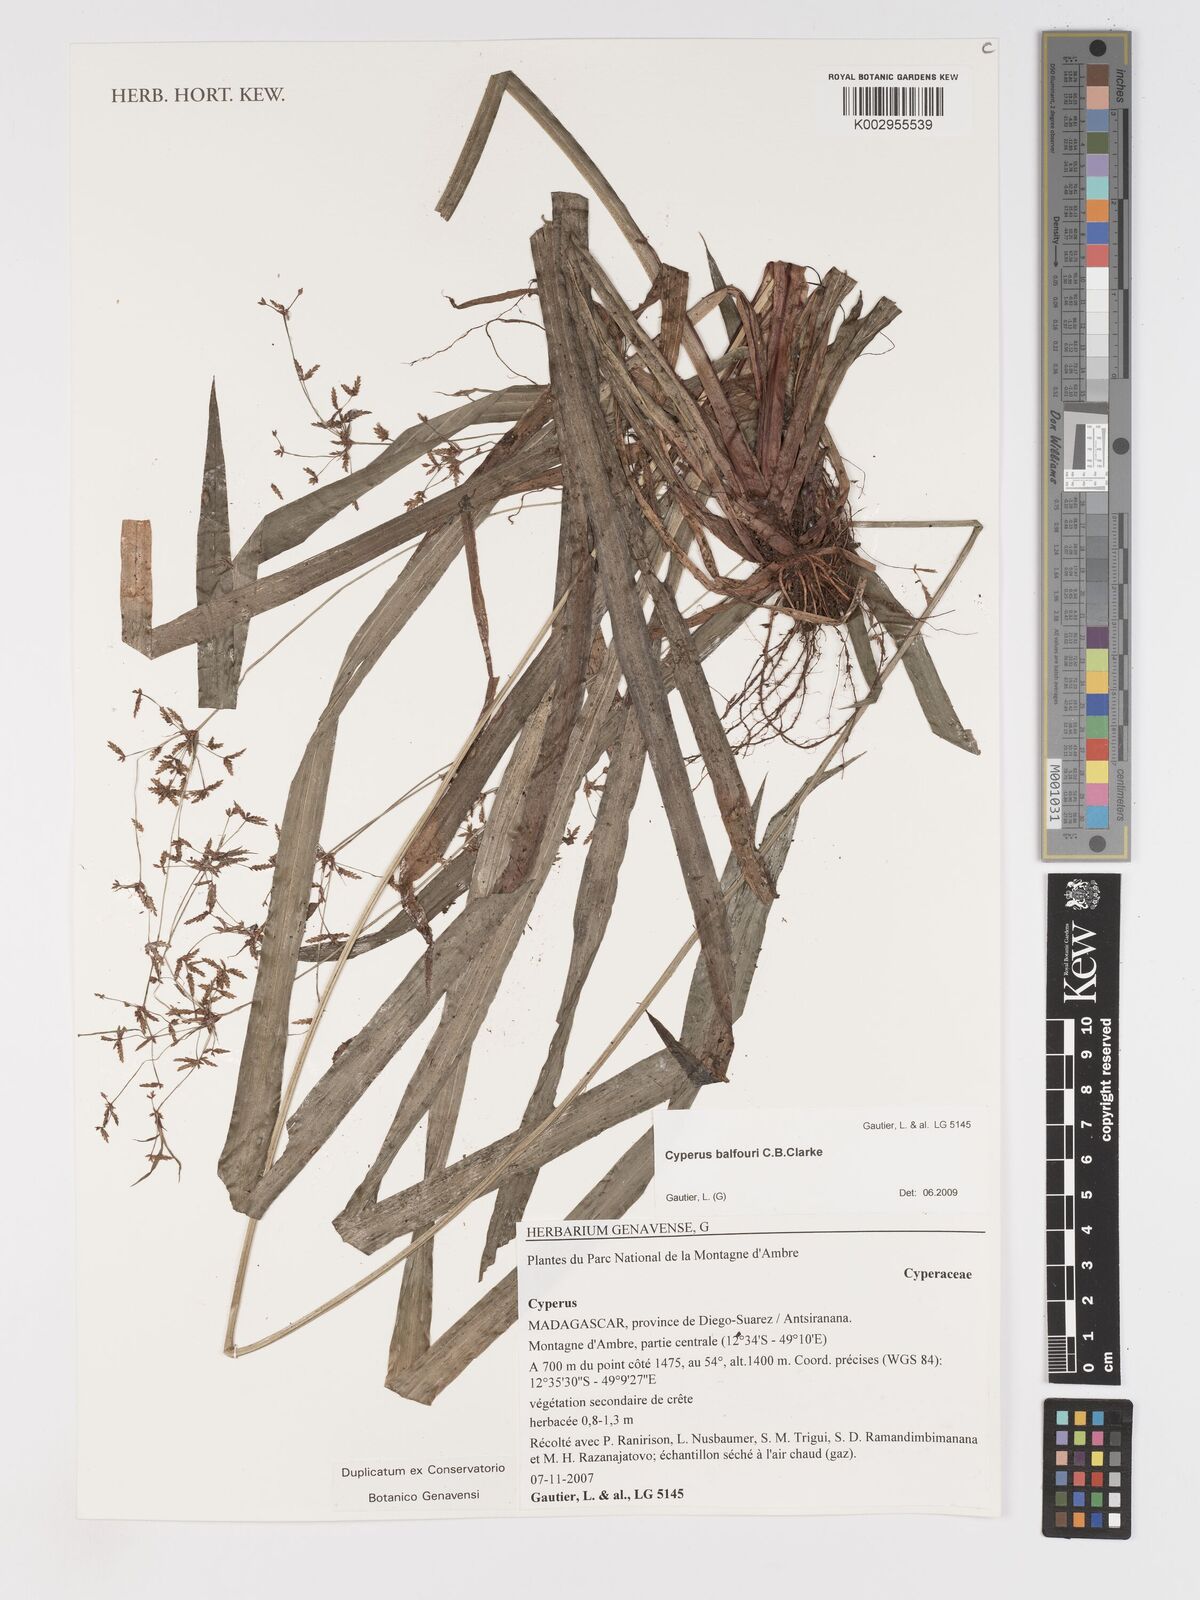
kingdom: Plantae
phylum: Tracheophyta
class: Liliopsida
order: Poales
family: Cyperaceae
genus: Cyperus
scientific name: Cyperus longifolius
